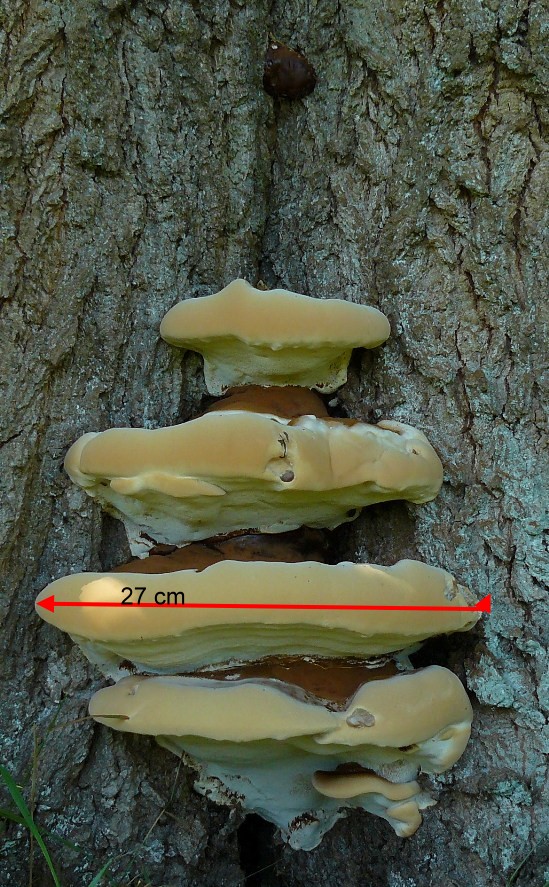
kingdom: Fungi
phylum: Basidiomycota
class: Agaricomycetes
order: Polyporales
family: Polyporaceae
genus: Ganoderma
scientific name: Ganoderma resinaceum
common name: gyldenbrun lakporesvamp
